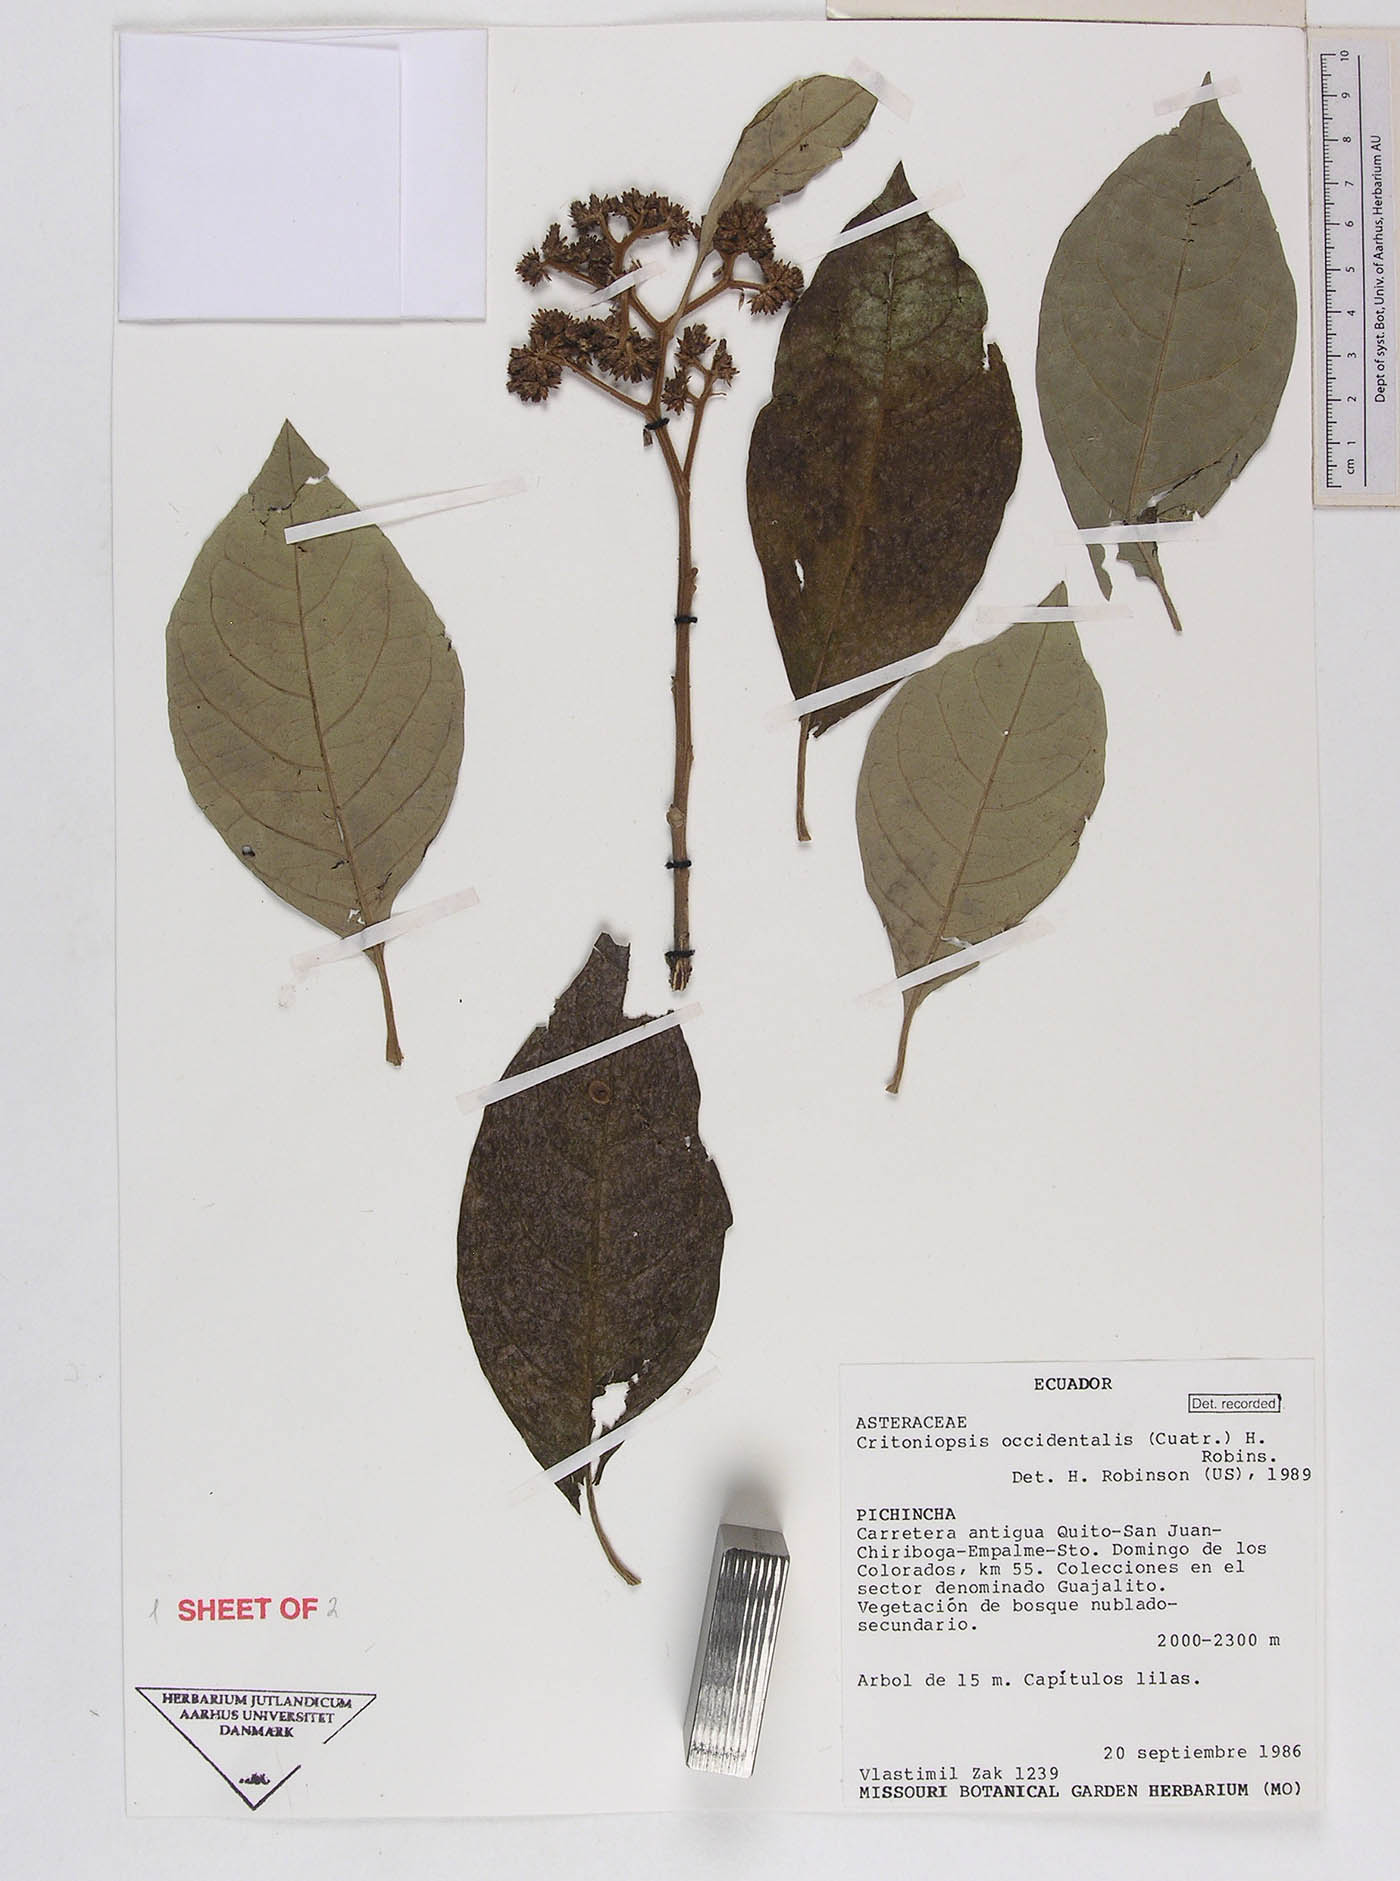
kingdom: Plantae
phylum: Tracheophyta
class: Magnoliopsida
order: Asterales
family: Asteraceae
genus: Critoniopsis
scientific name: Critoniopsis occidentalis
